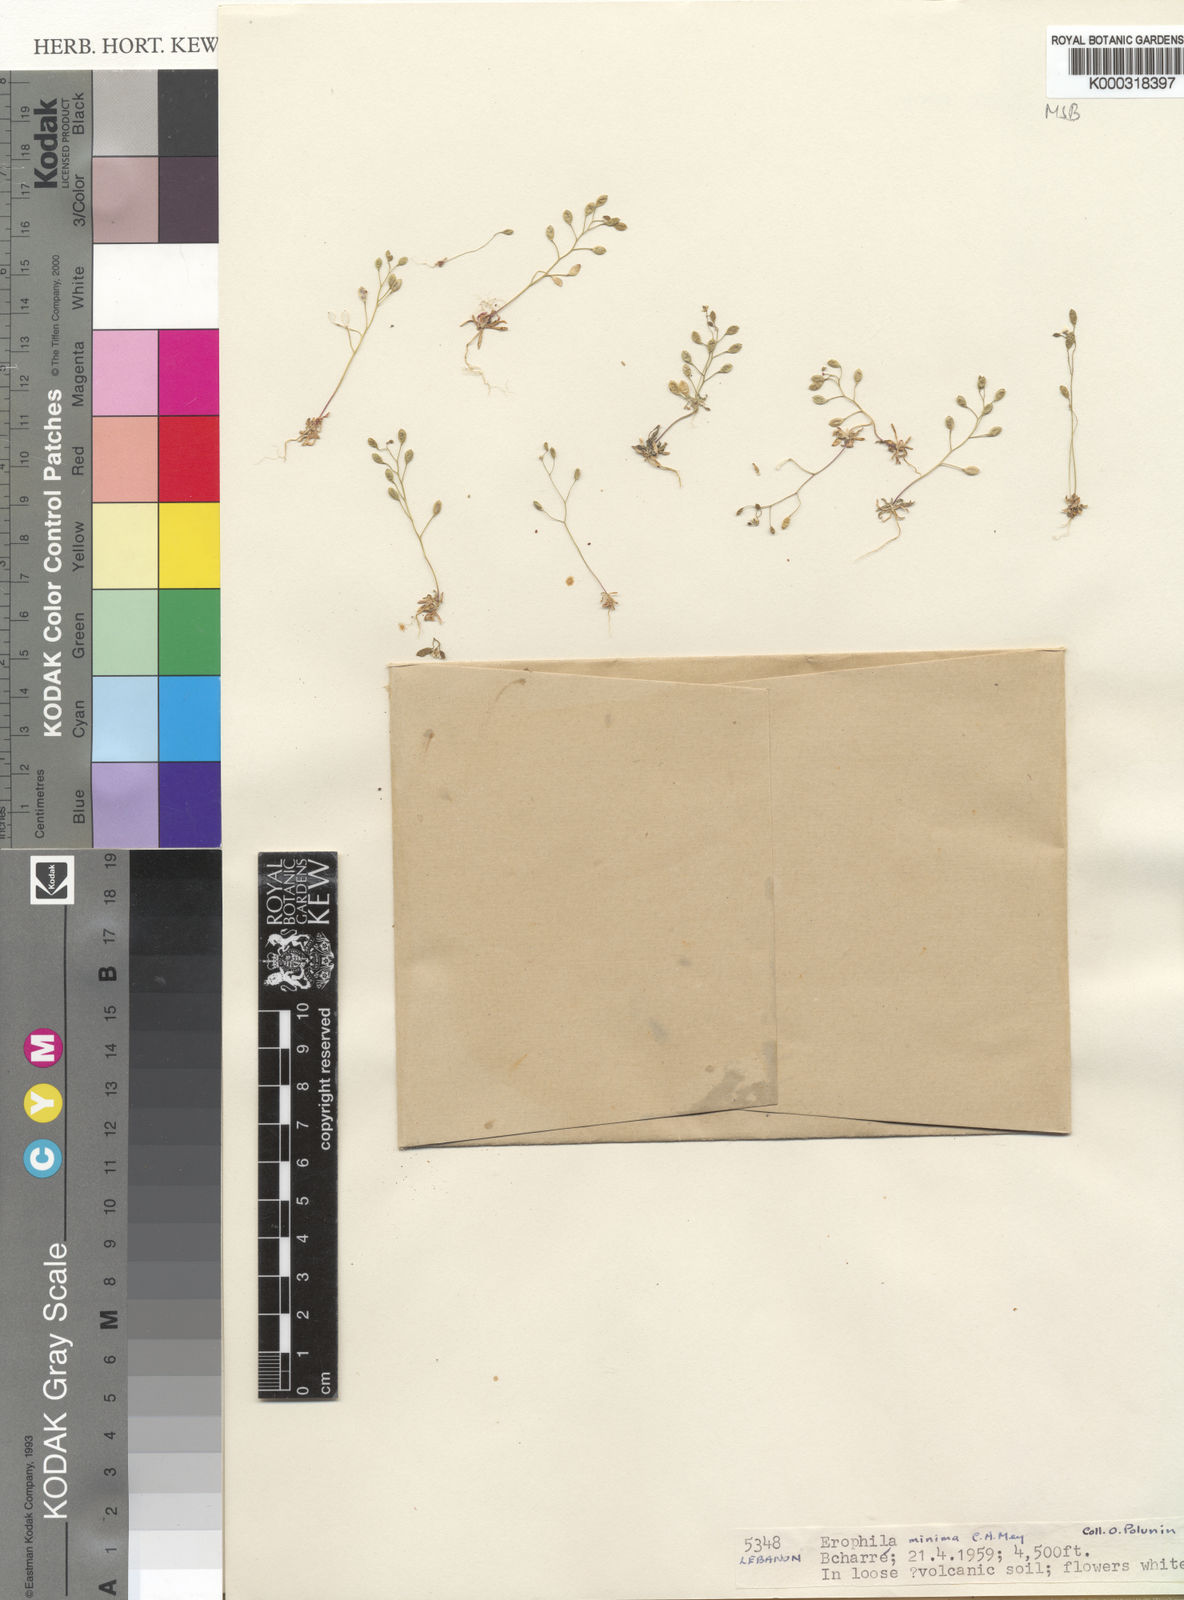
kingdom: Plantae
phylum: Tracheophyta
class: Magnoliopsida
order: Brassicales
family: Brassicaceae
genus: Draba
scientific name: Draba minima
